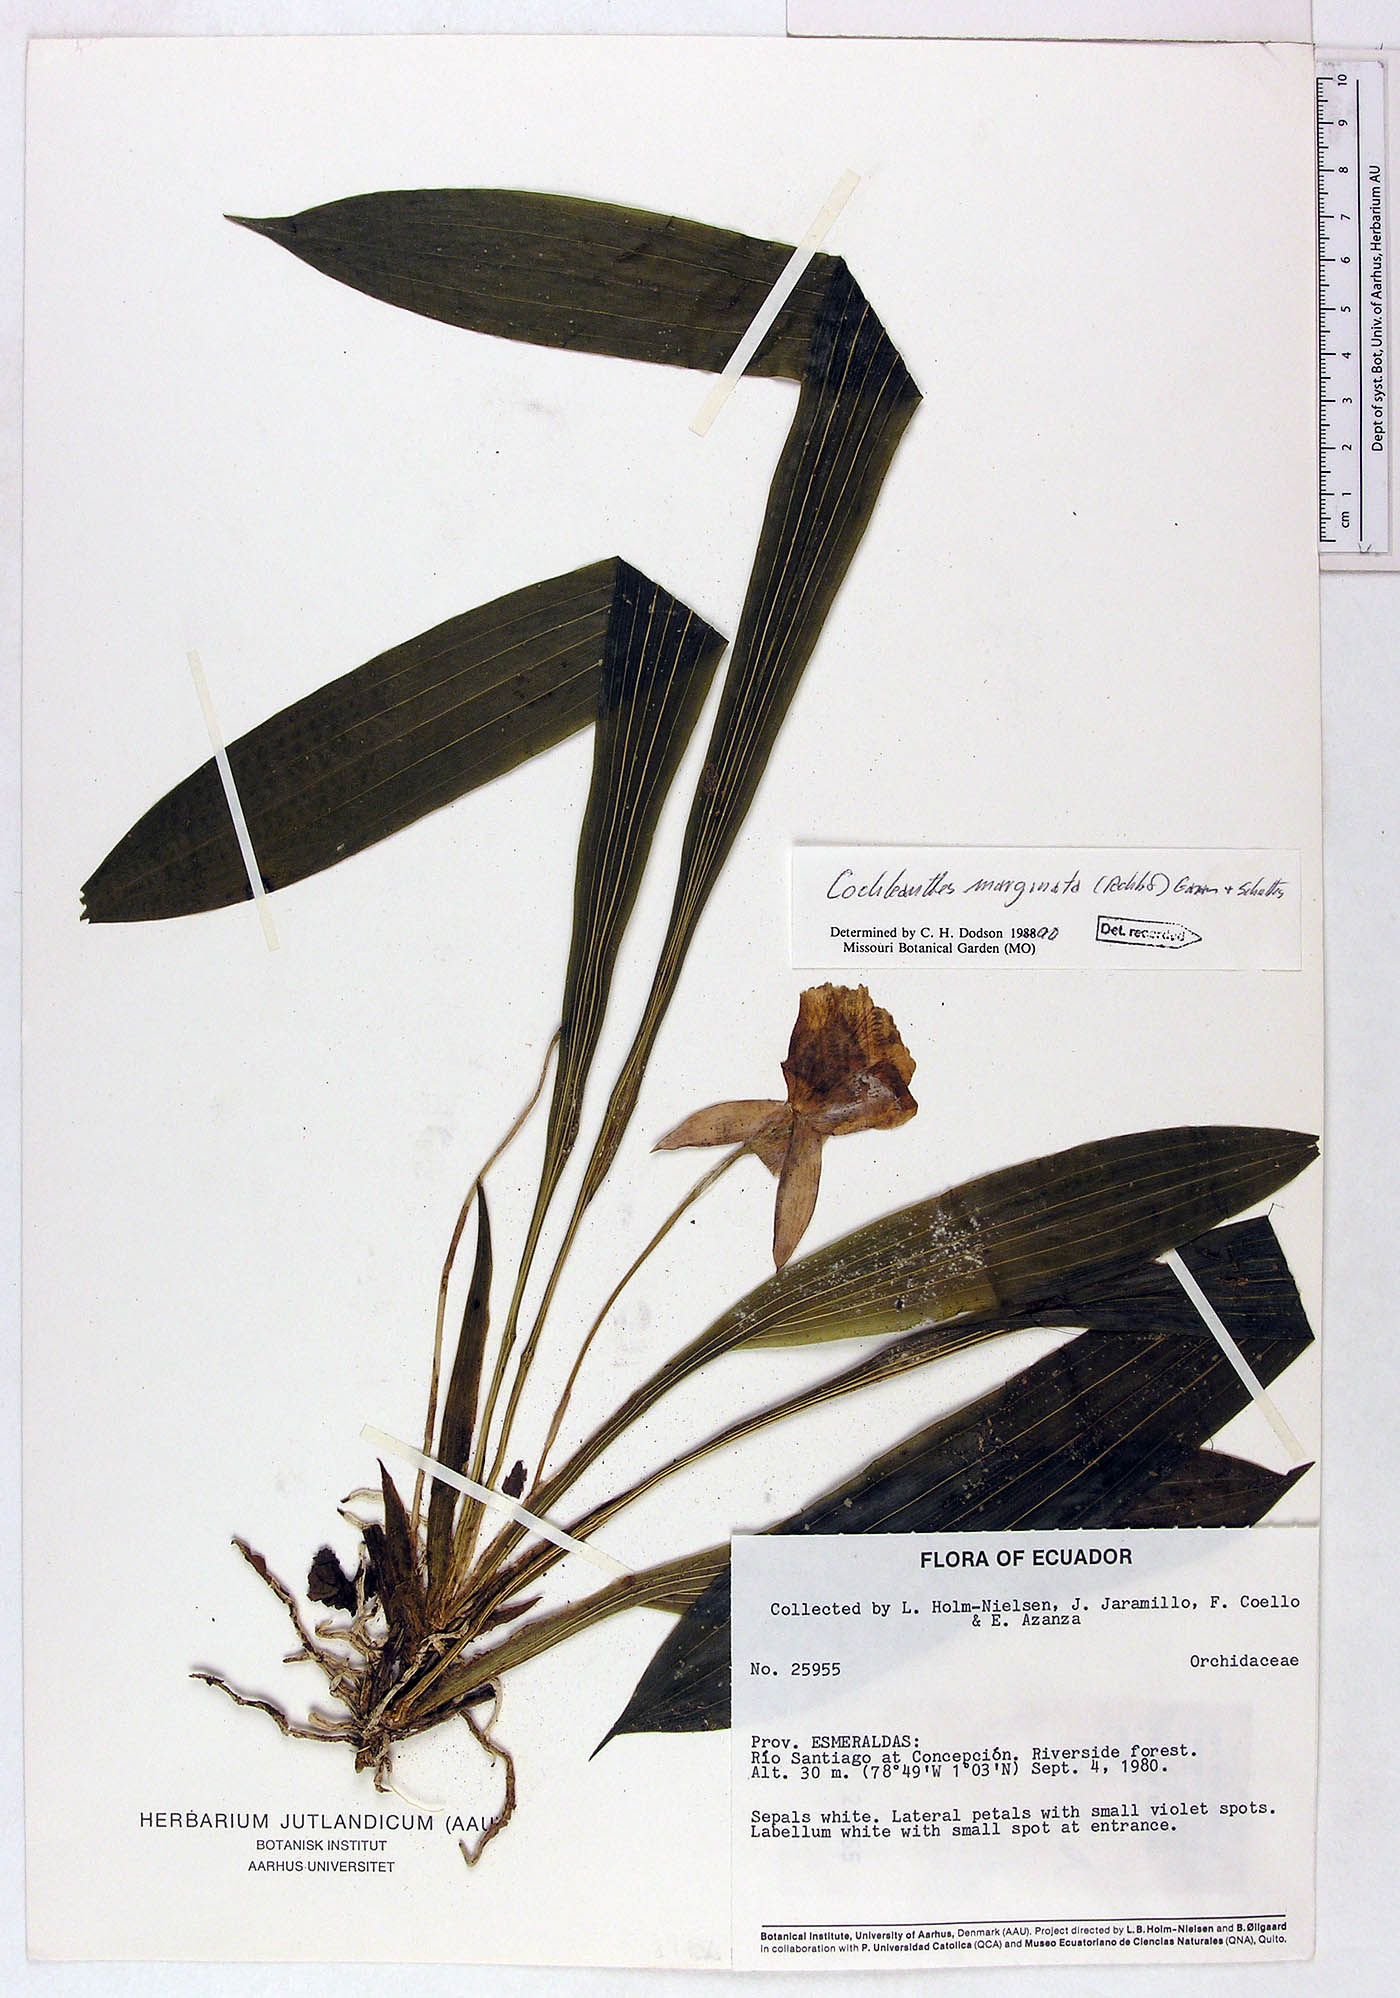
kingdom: Plantae
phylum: Tracheophyta
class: Liliopsida
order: Asparagales
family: Orchidaceae
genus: Warczewiczella
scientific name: Warczewiczella marginata
